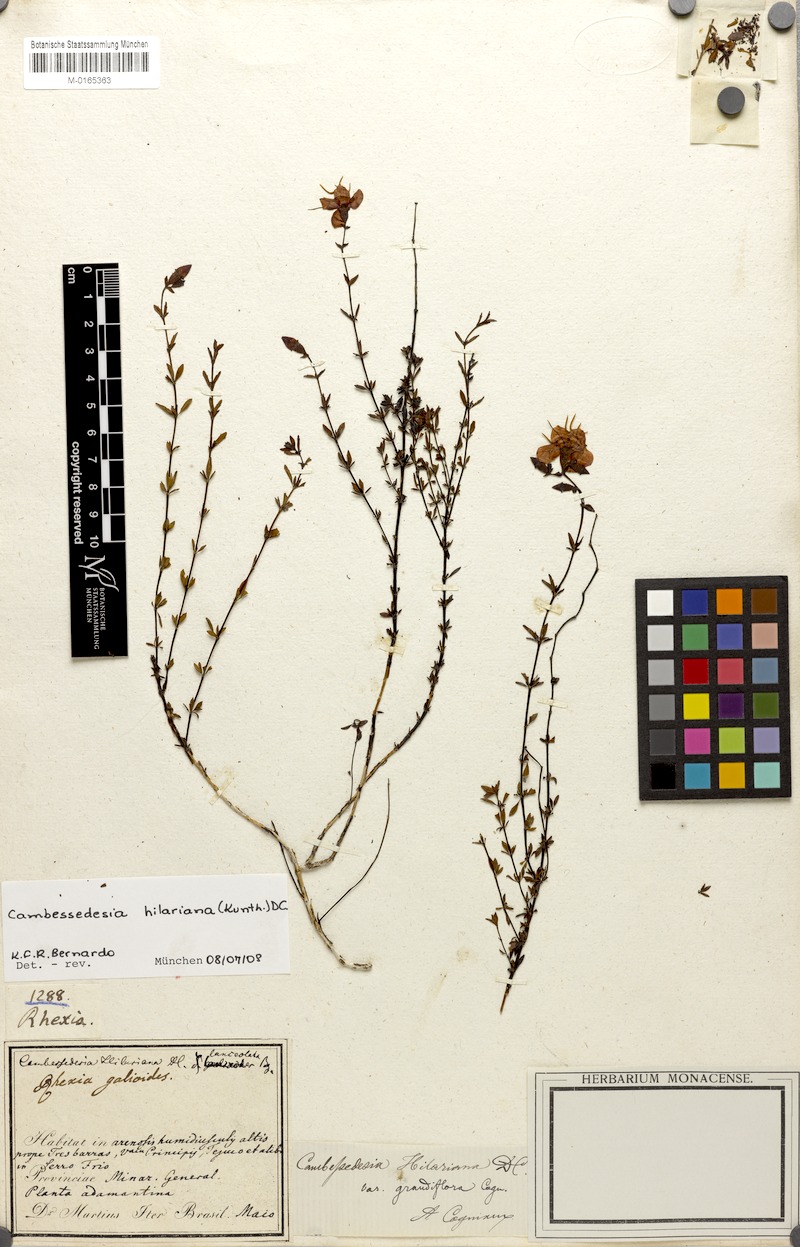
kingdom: Plantae
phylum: Tracheophyta
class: Magnoliopsida
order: Myrtales
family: Melastomataceae
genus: Cambessedesia
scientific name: Cambessedesia hilariana
